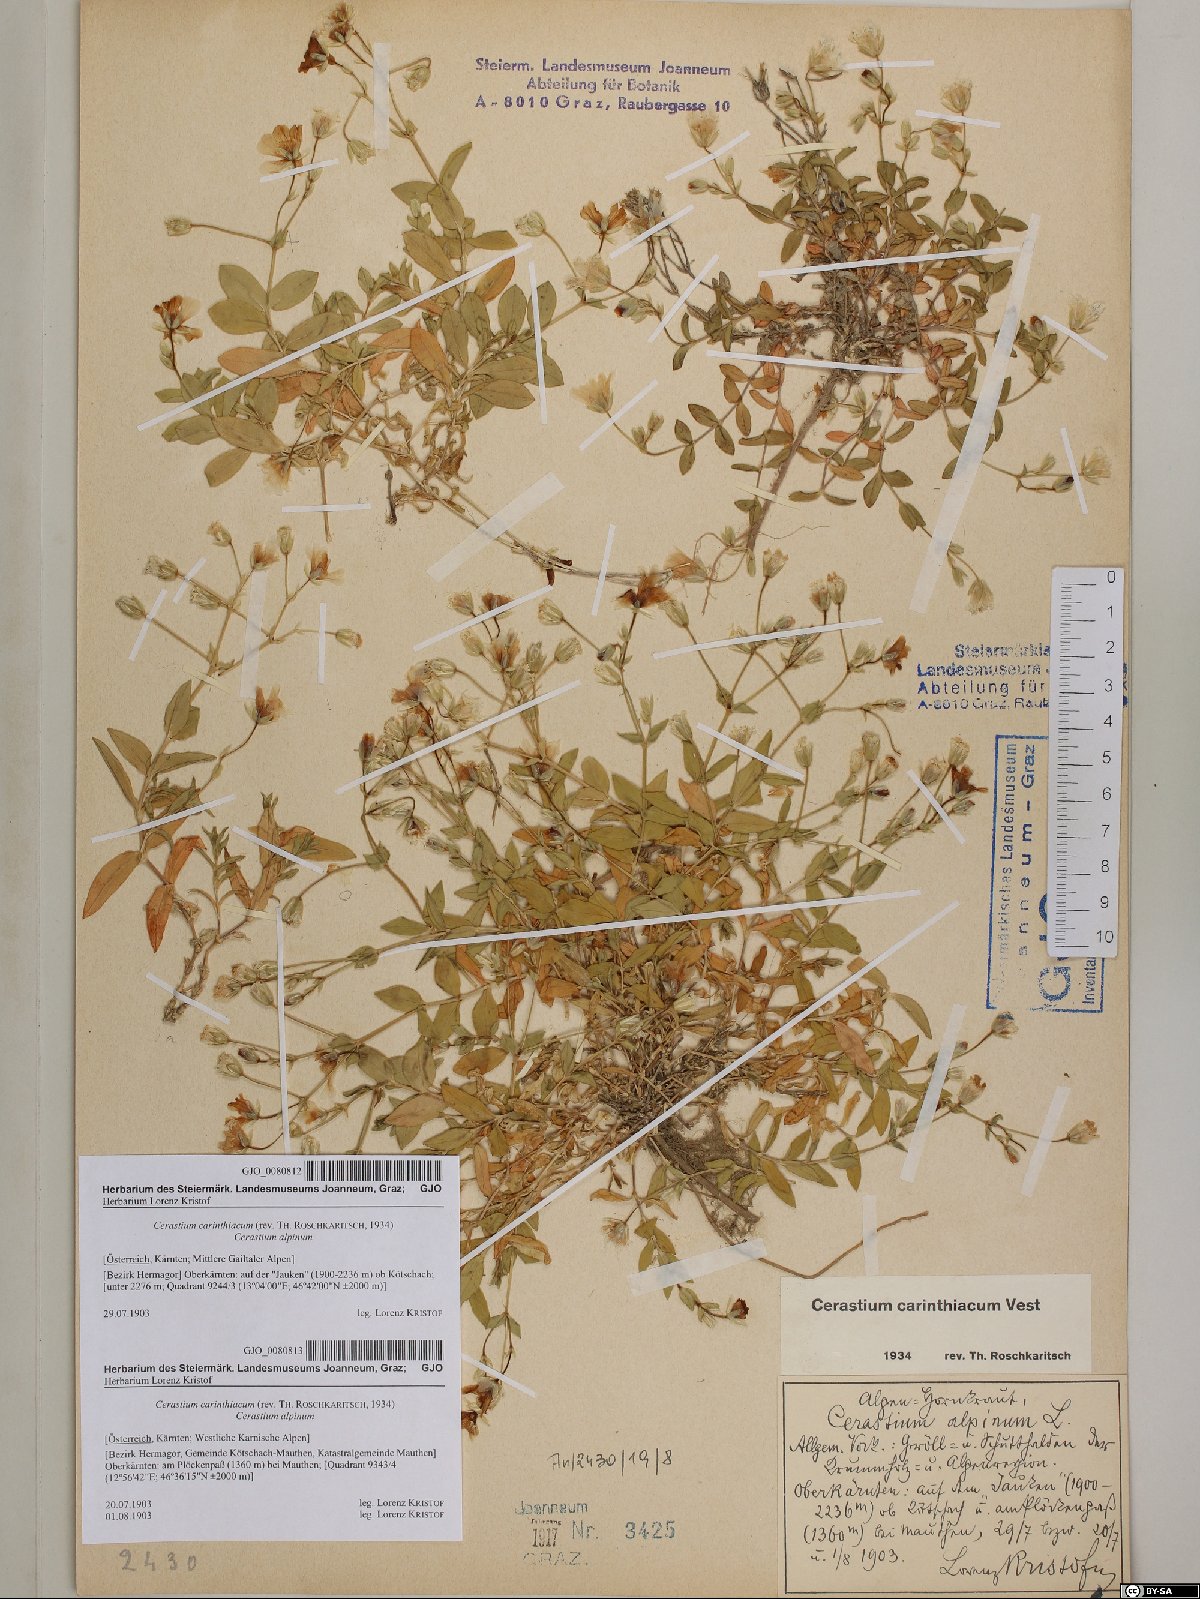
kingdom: Plantae
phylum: Tracheophyta
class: Magnoliopsida
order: Caryophyllales
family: Caryophyllaceae
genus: Cerastium
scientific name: Cerastium carinthiacum
